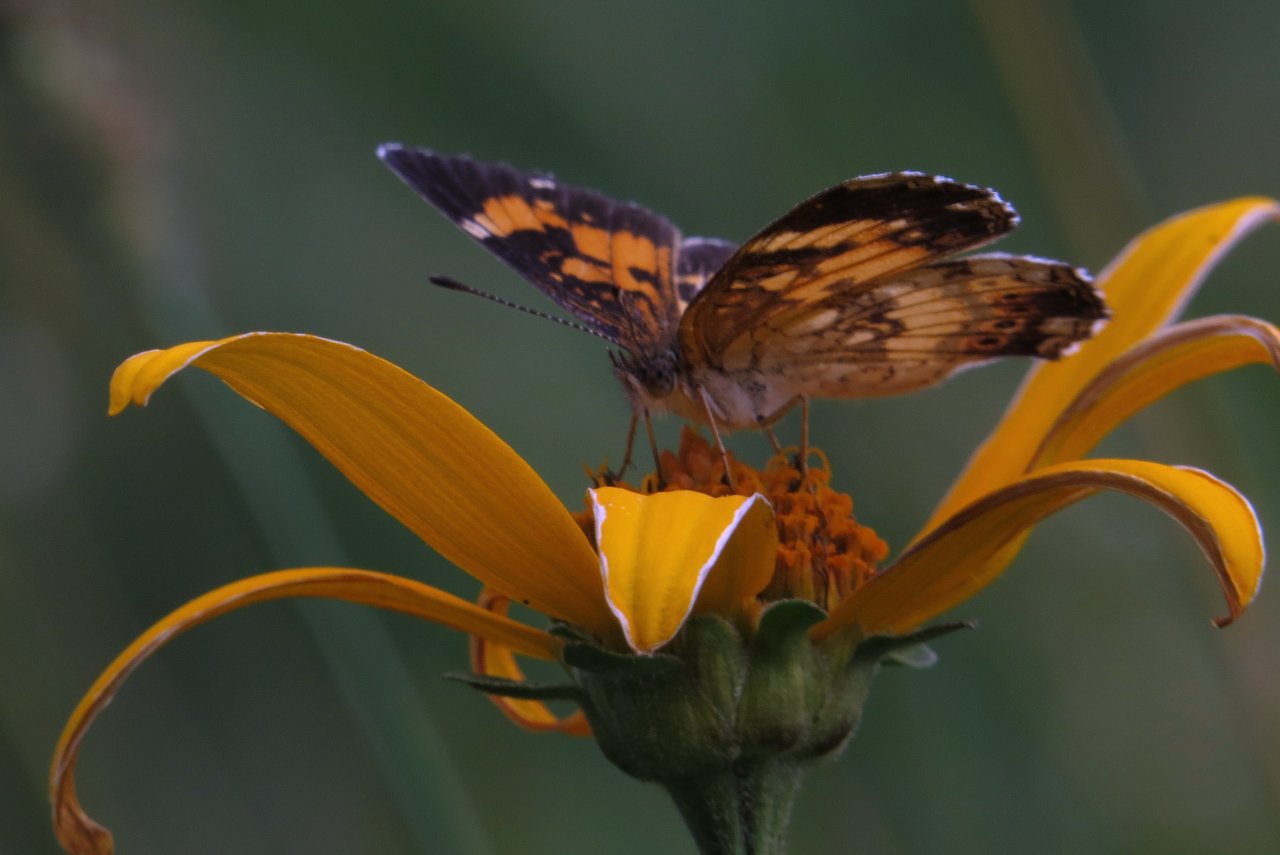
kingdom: Animalia
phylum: Arthropoda
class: Insecta
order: Lepidoptera
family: Nymphalidae
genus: Chlosyne
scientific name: Chlosyne nycteis
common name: Silvery Checkerspot
